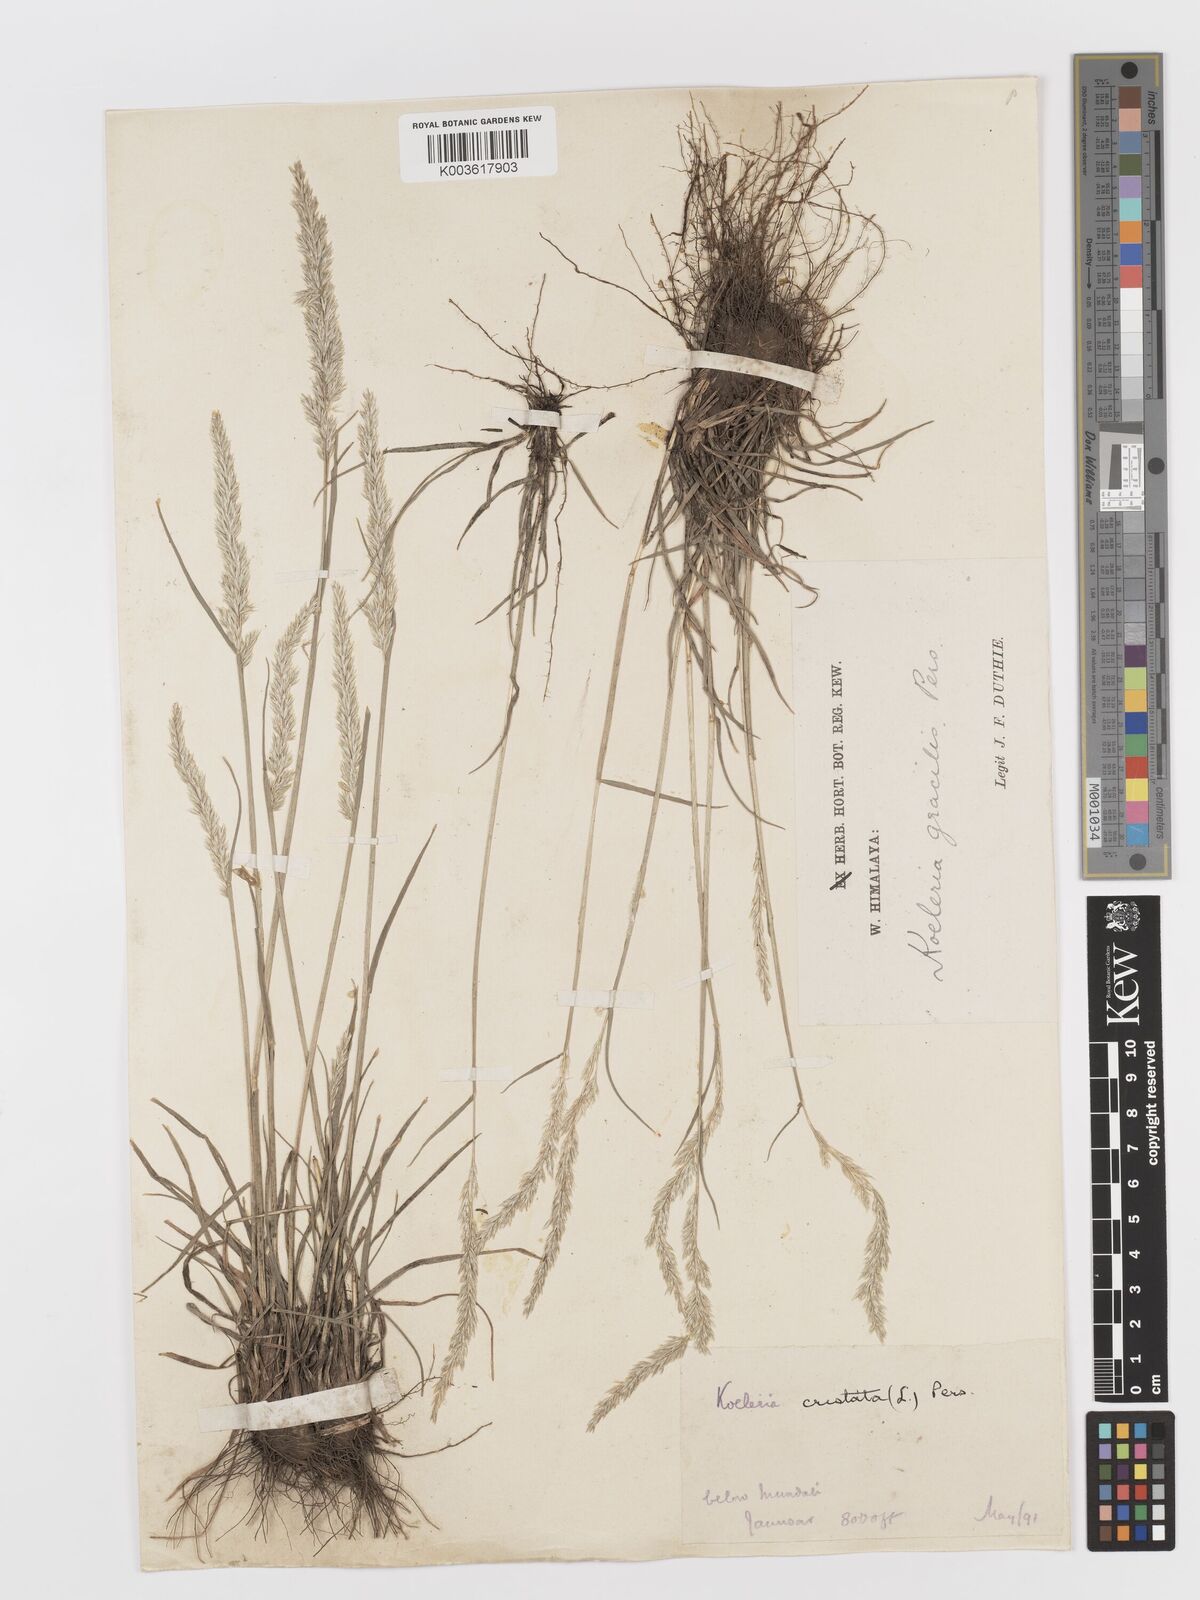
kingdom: Plantae
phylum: Tracheophyta
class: Liliopsida
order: Poales
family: Poaceae
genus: Koeleria
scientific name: Koeleria
